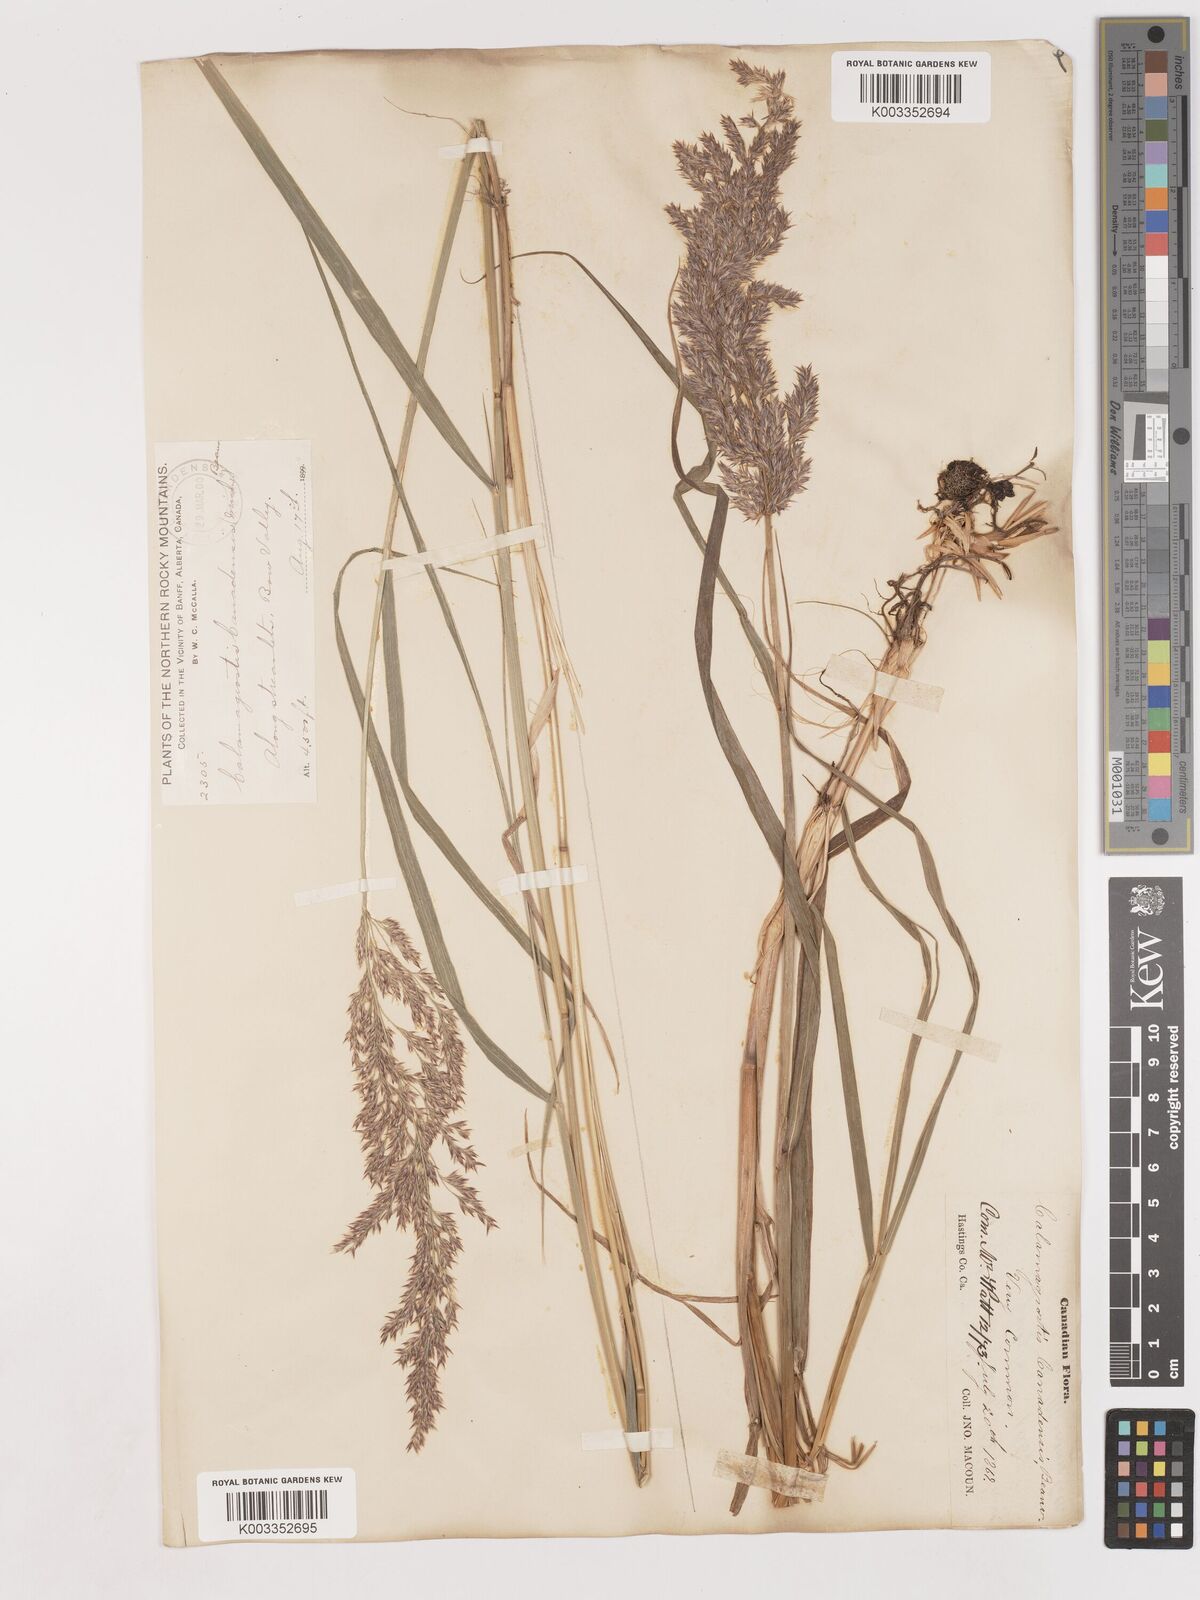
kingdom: Plantae
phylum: Tracheophyta
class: Liliopsida
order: Poales
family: Poaceae
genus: Calamagrostis
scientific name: Calamagrostis canadensis
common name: Canada bluejoint
